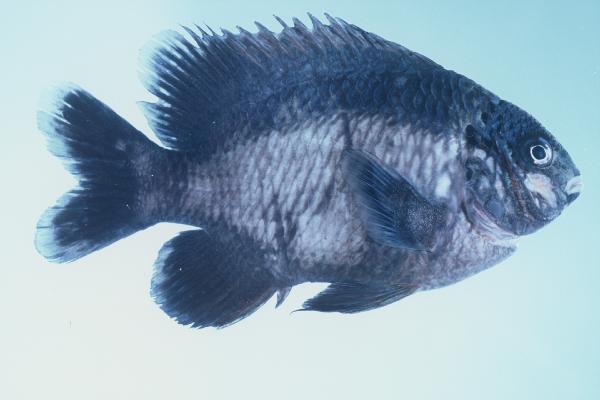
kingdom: Animalia
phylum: Chordata
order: Perciformes
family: Pomacentridae
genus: Stegastes
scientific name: Stegastes limbatus
